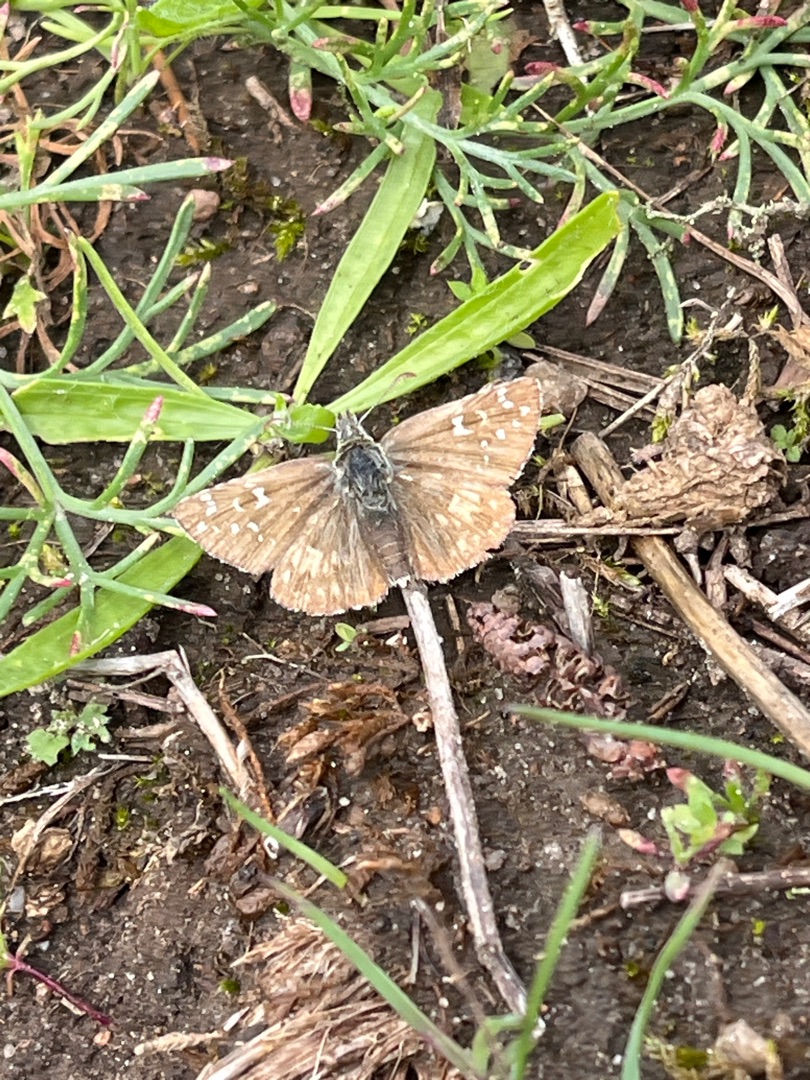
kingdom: Animalia
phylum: Arthropoda
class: Insecta
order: Lepidoptera
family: Hesperiidae
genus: Pyrgus
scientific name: Pyrgus armoricanus
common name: Fransk bredpande
